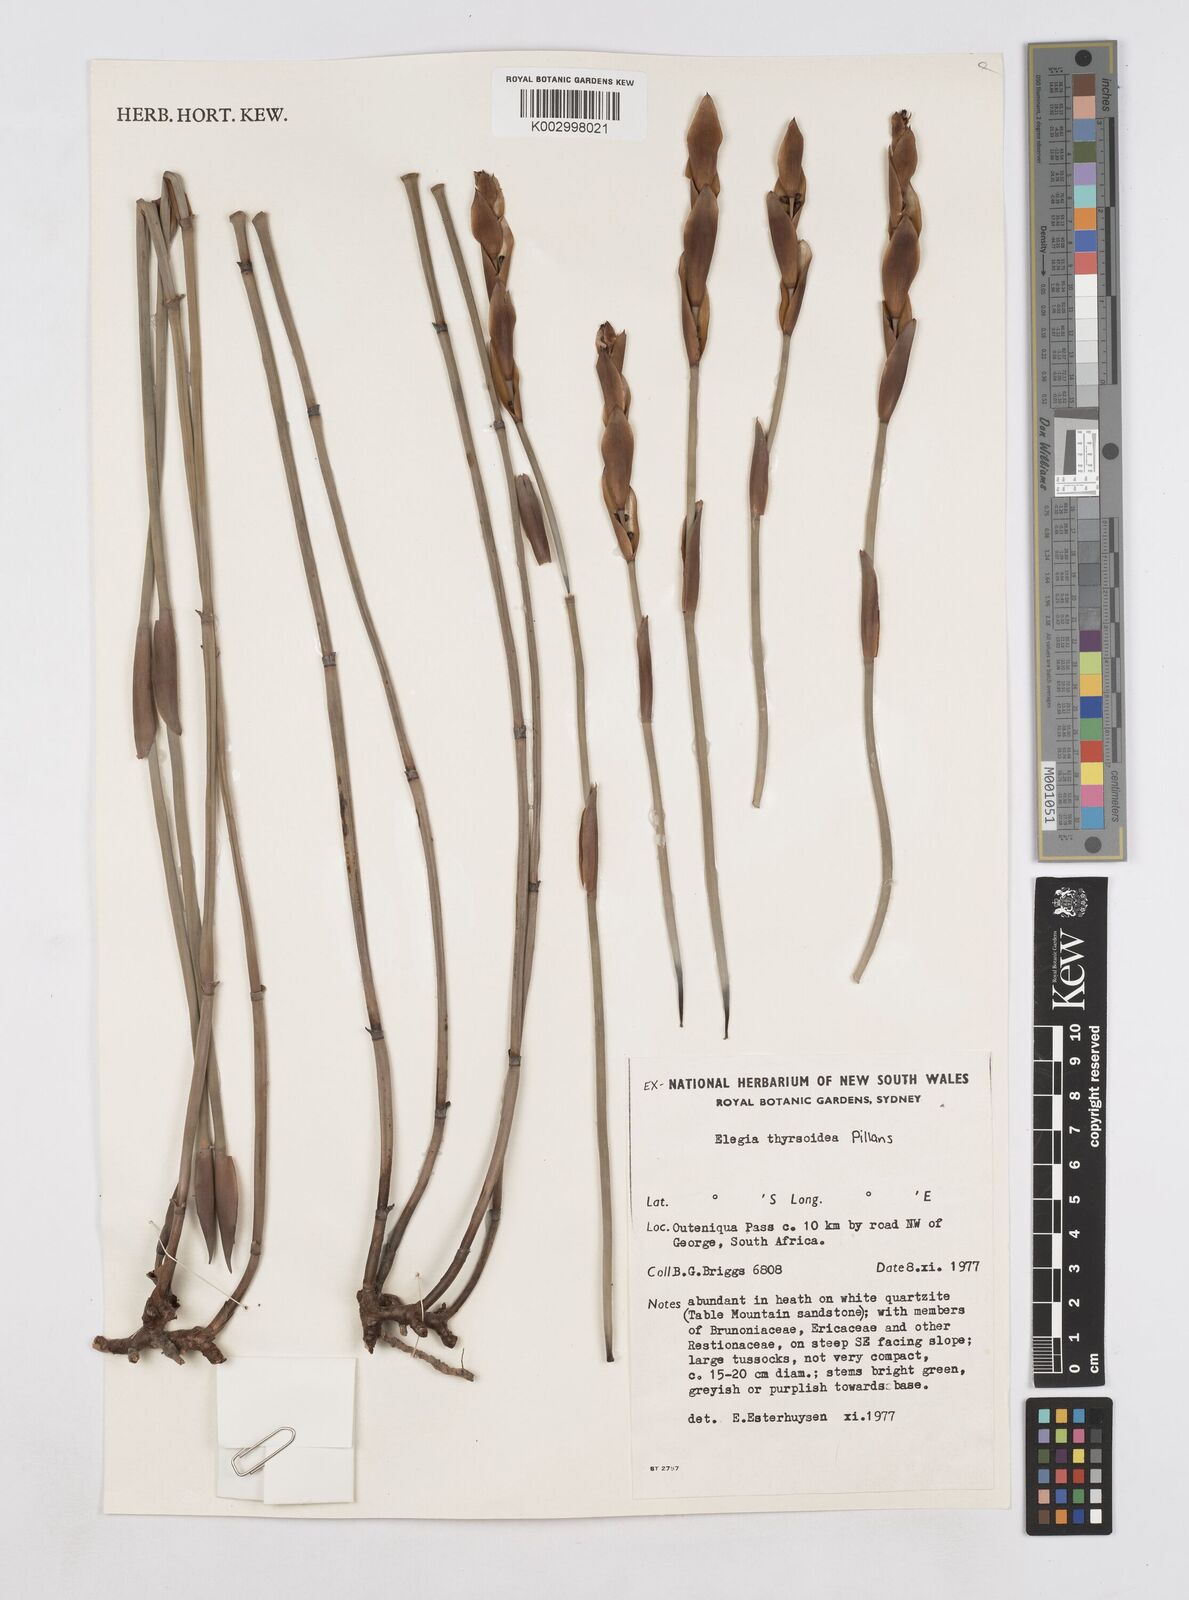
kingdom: Plantae
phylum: Tracheophyta
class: Liliopsida
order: Poales
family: Restionaceae
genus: Elegia
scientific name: Elegia thyrsoidea
